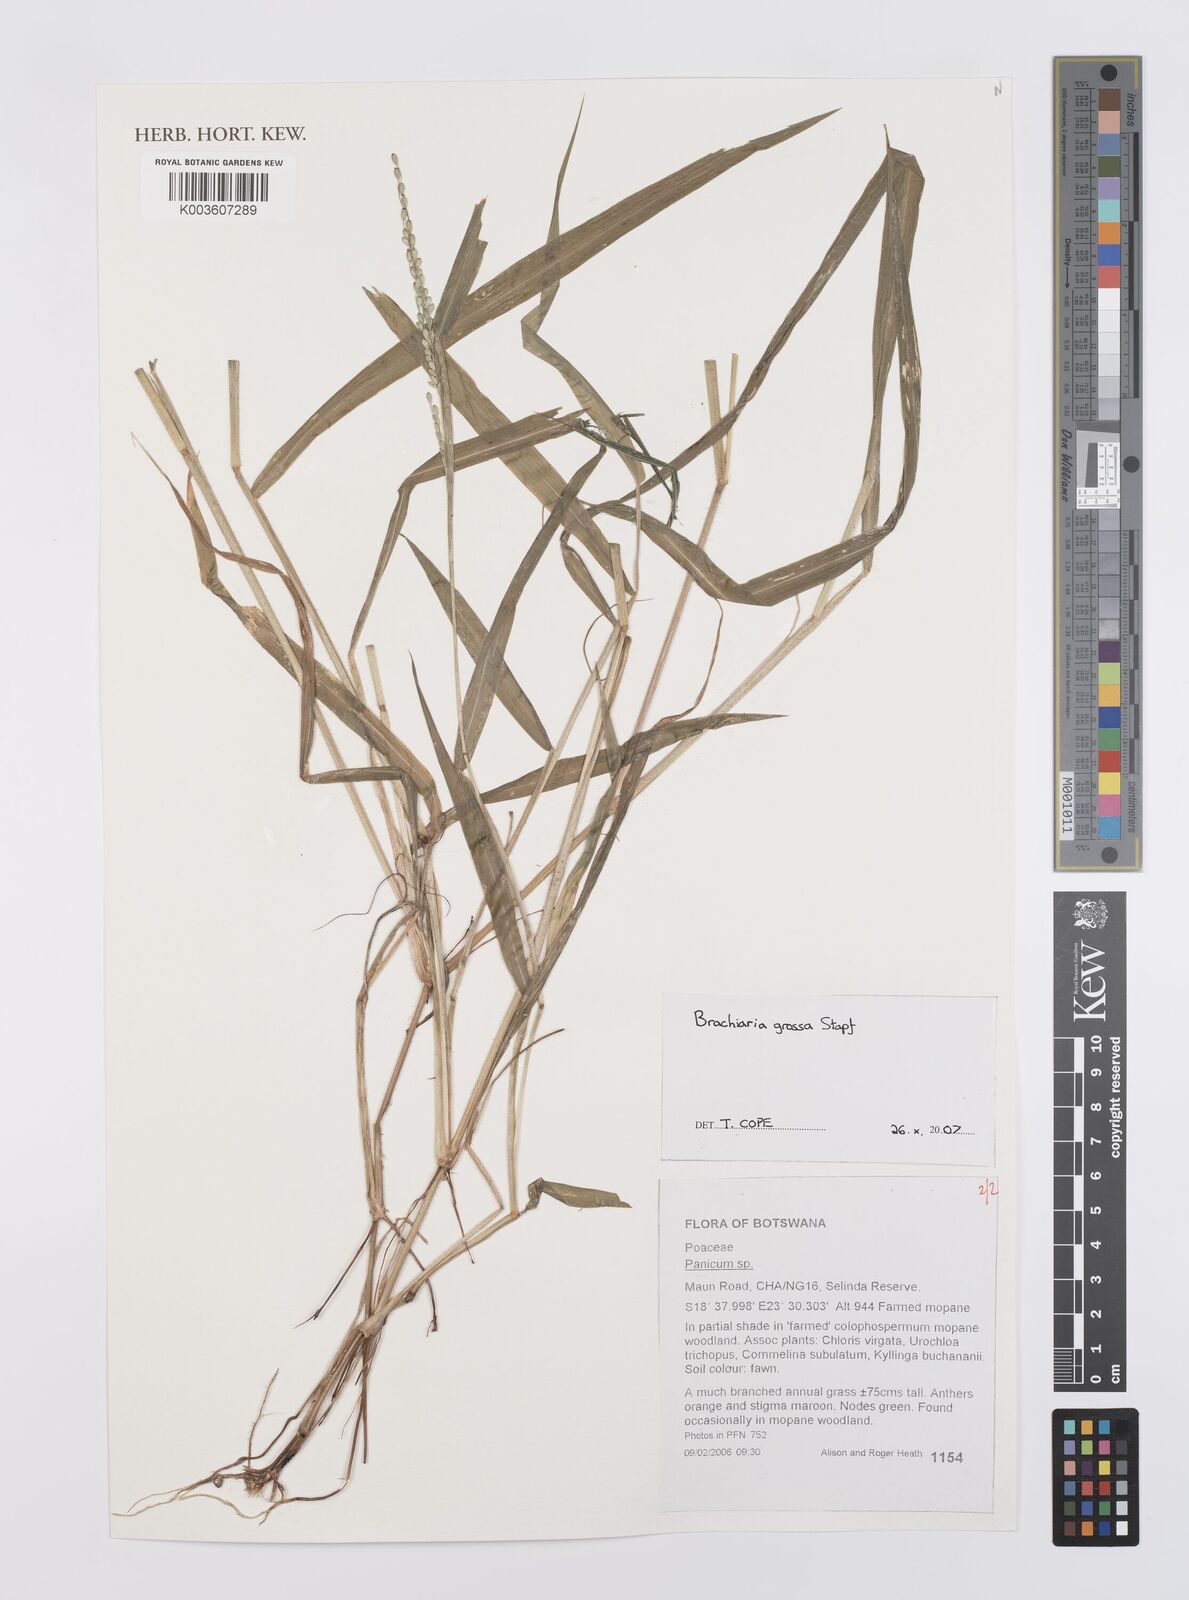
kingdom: Plantae
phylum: Tracheophyta
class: Liliopsida
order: Poales
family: Poaceae
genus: Urochloa
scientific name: Urochloa Brachiaria grossa
